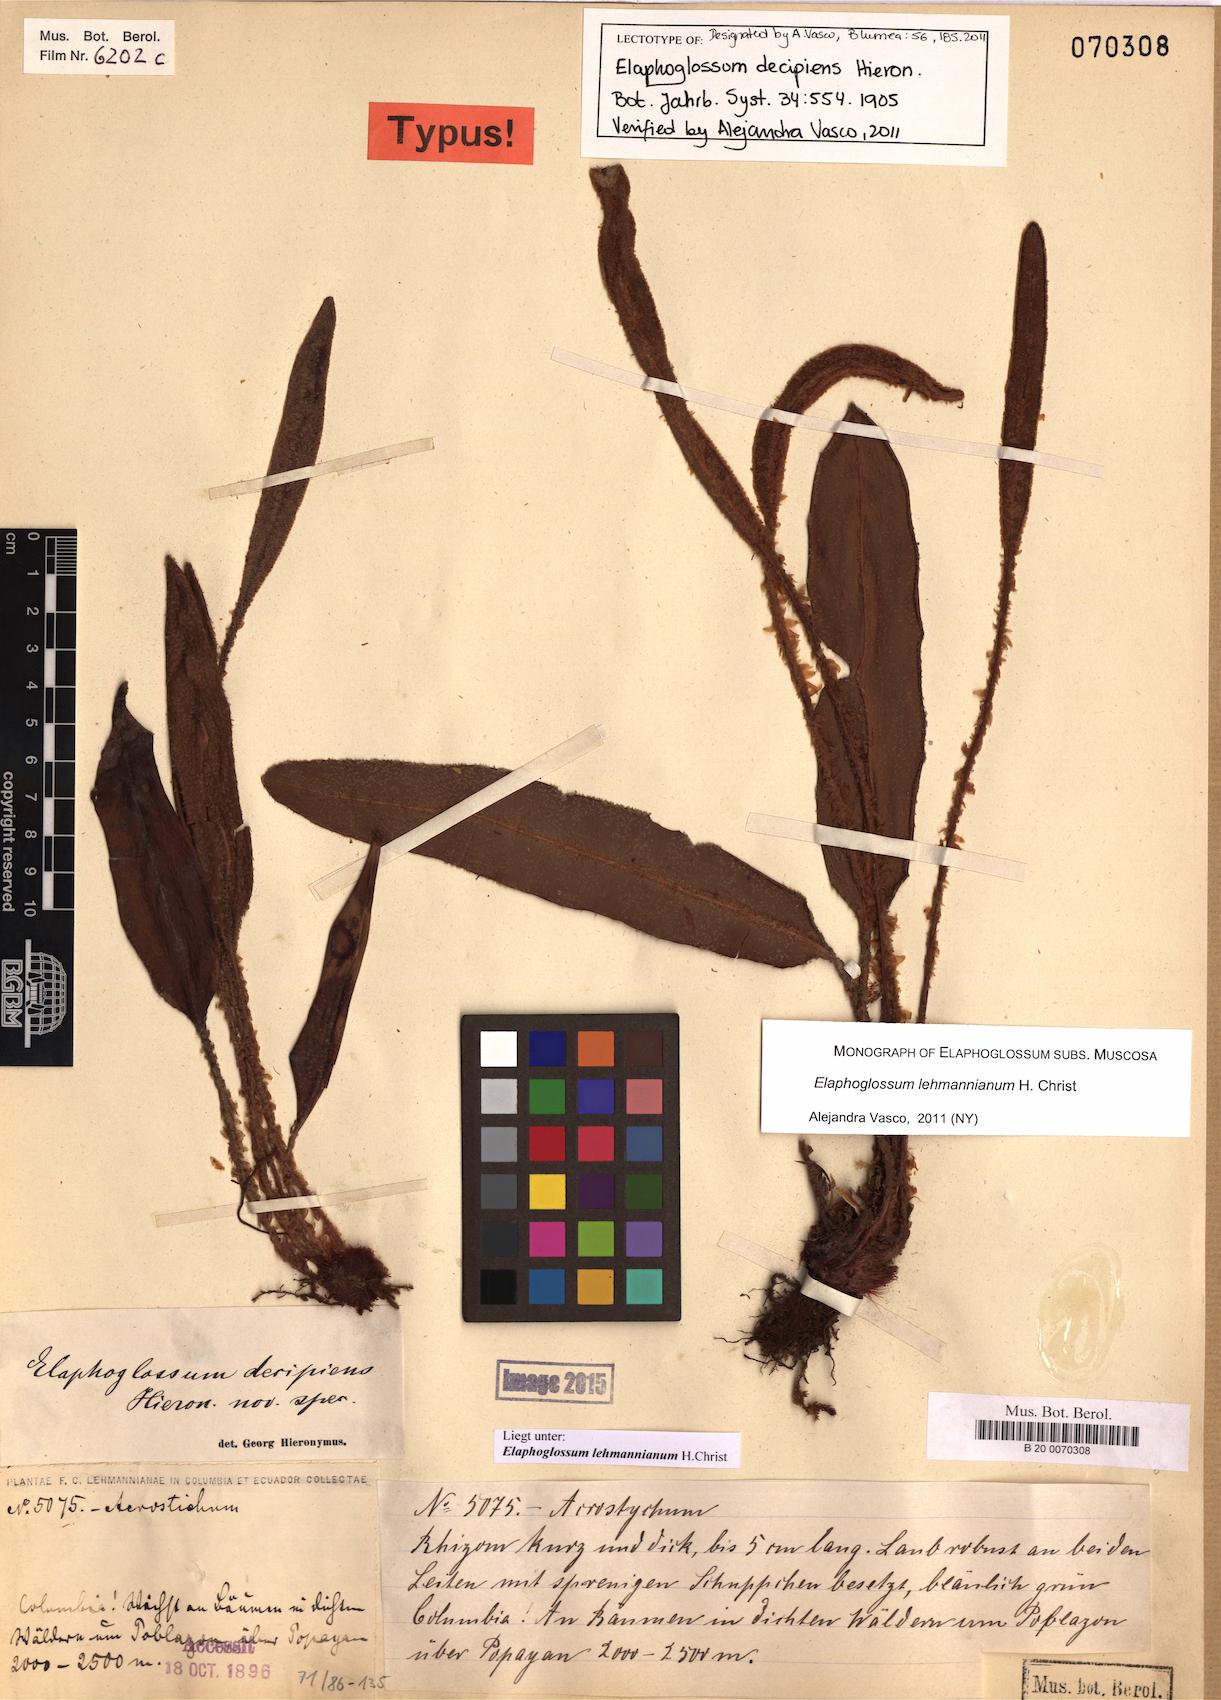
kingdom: Plantae
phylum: Tracheophyta
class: Polypodiopsida
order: Polypodiales
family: Dryopteridaceae
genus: Elaphoglossum
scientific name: Elaphoglossum lehmannianum
